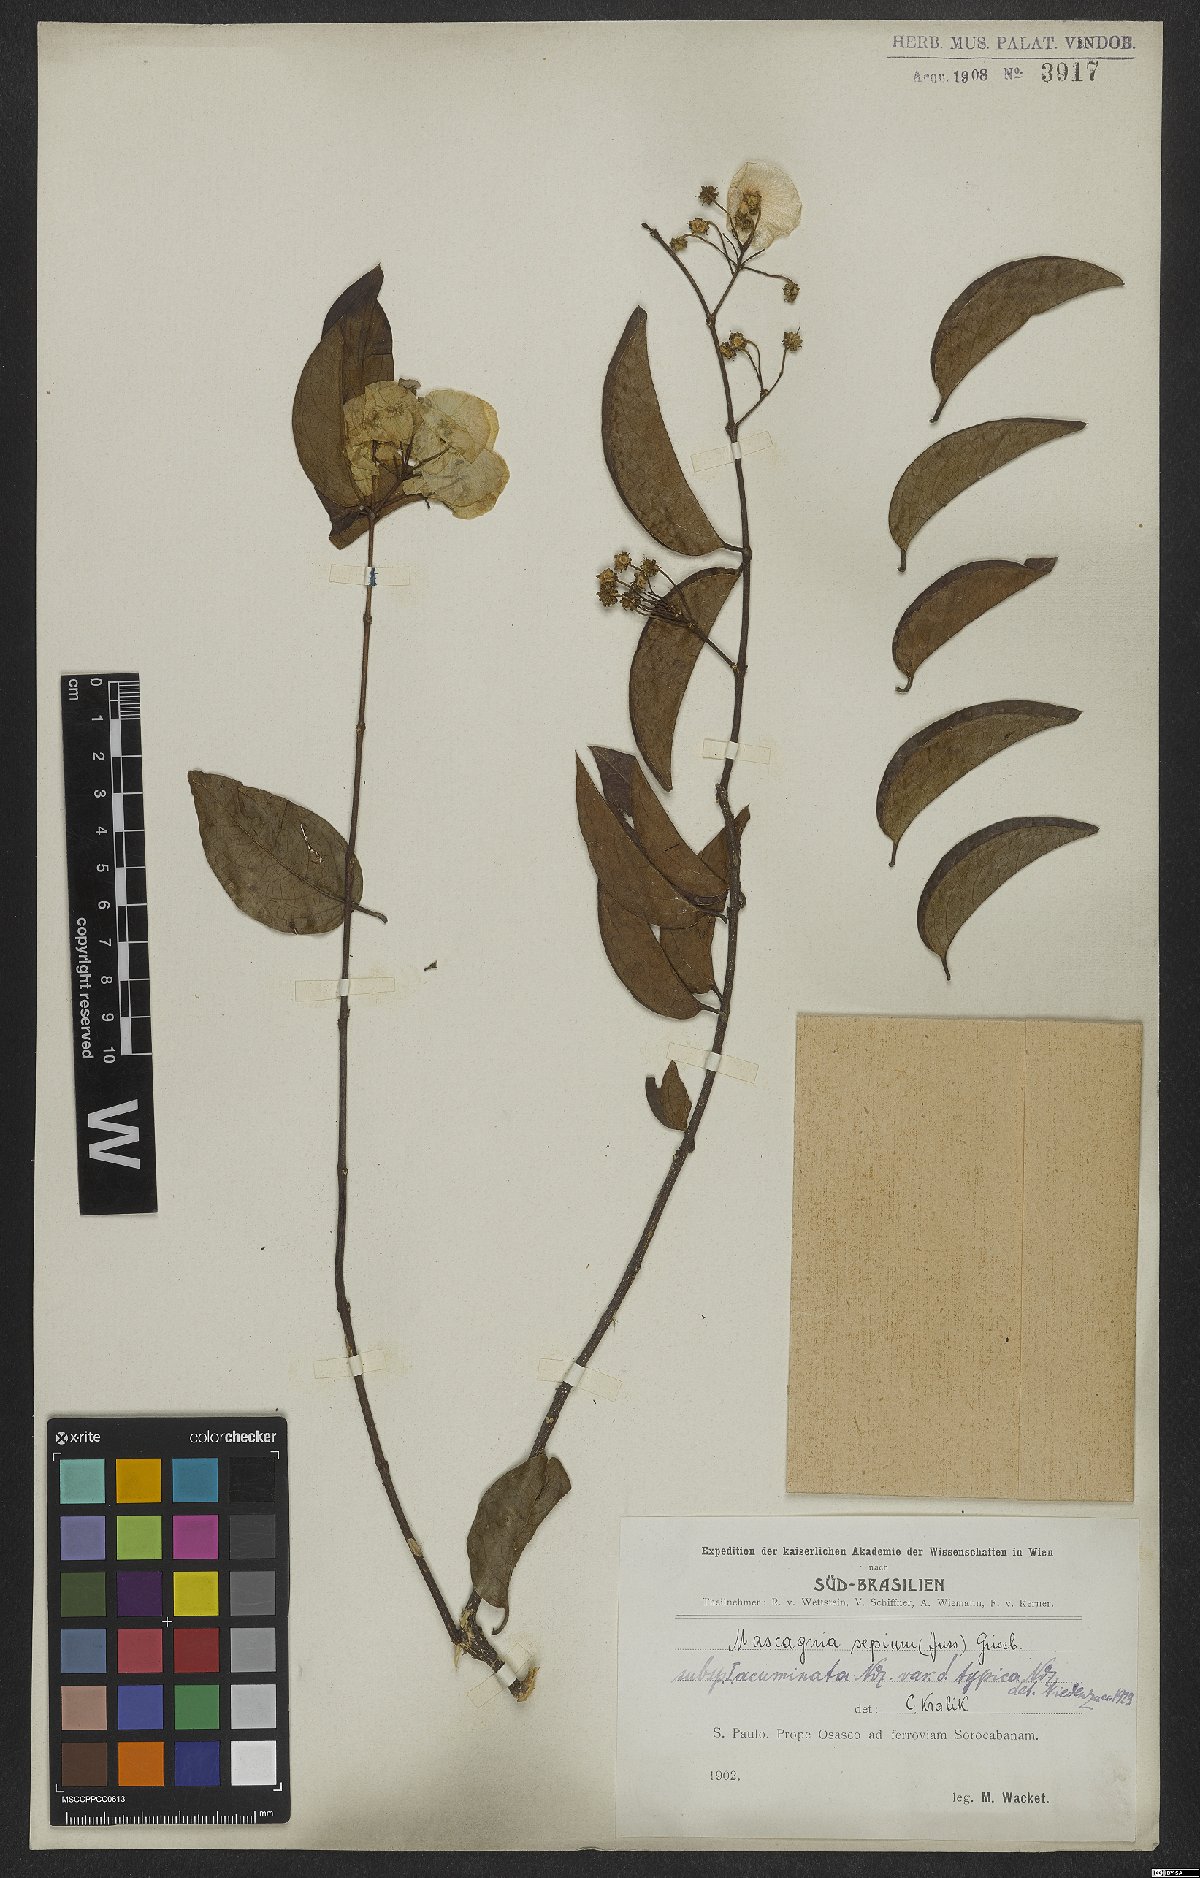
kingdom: Plantae
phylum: Tracheophyta
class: Magnoliopsida
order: Malpighiales
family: Malpighiaceae
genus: Mascagnia
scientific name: Mascagnia sepium
